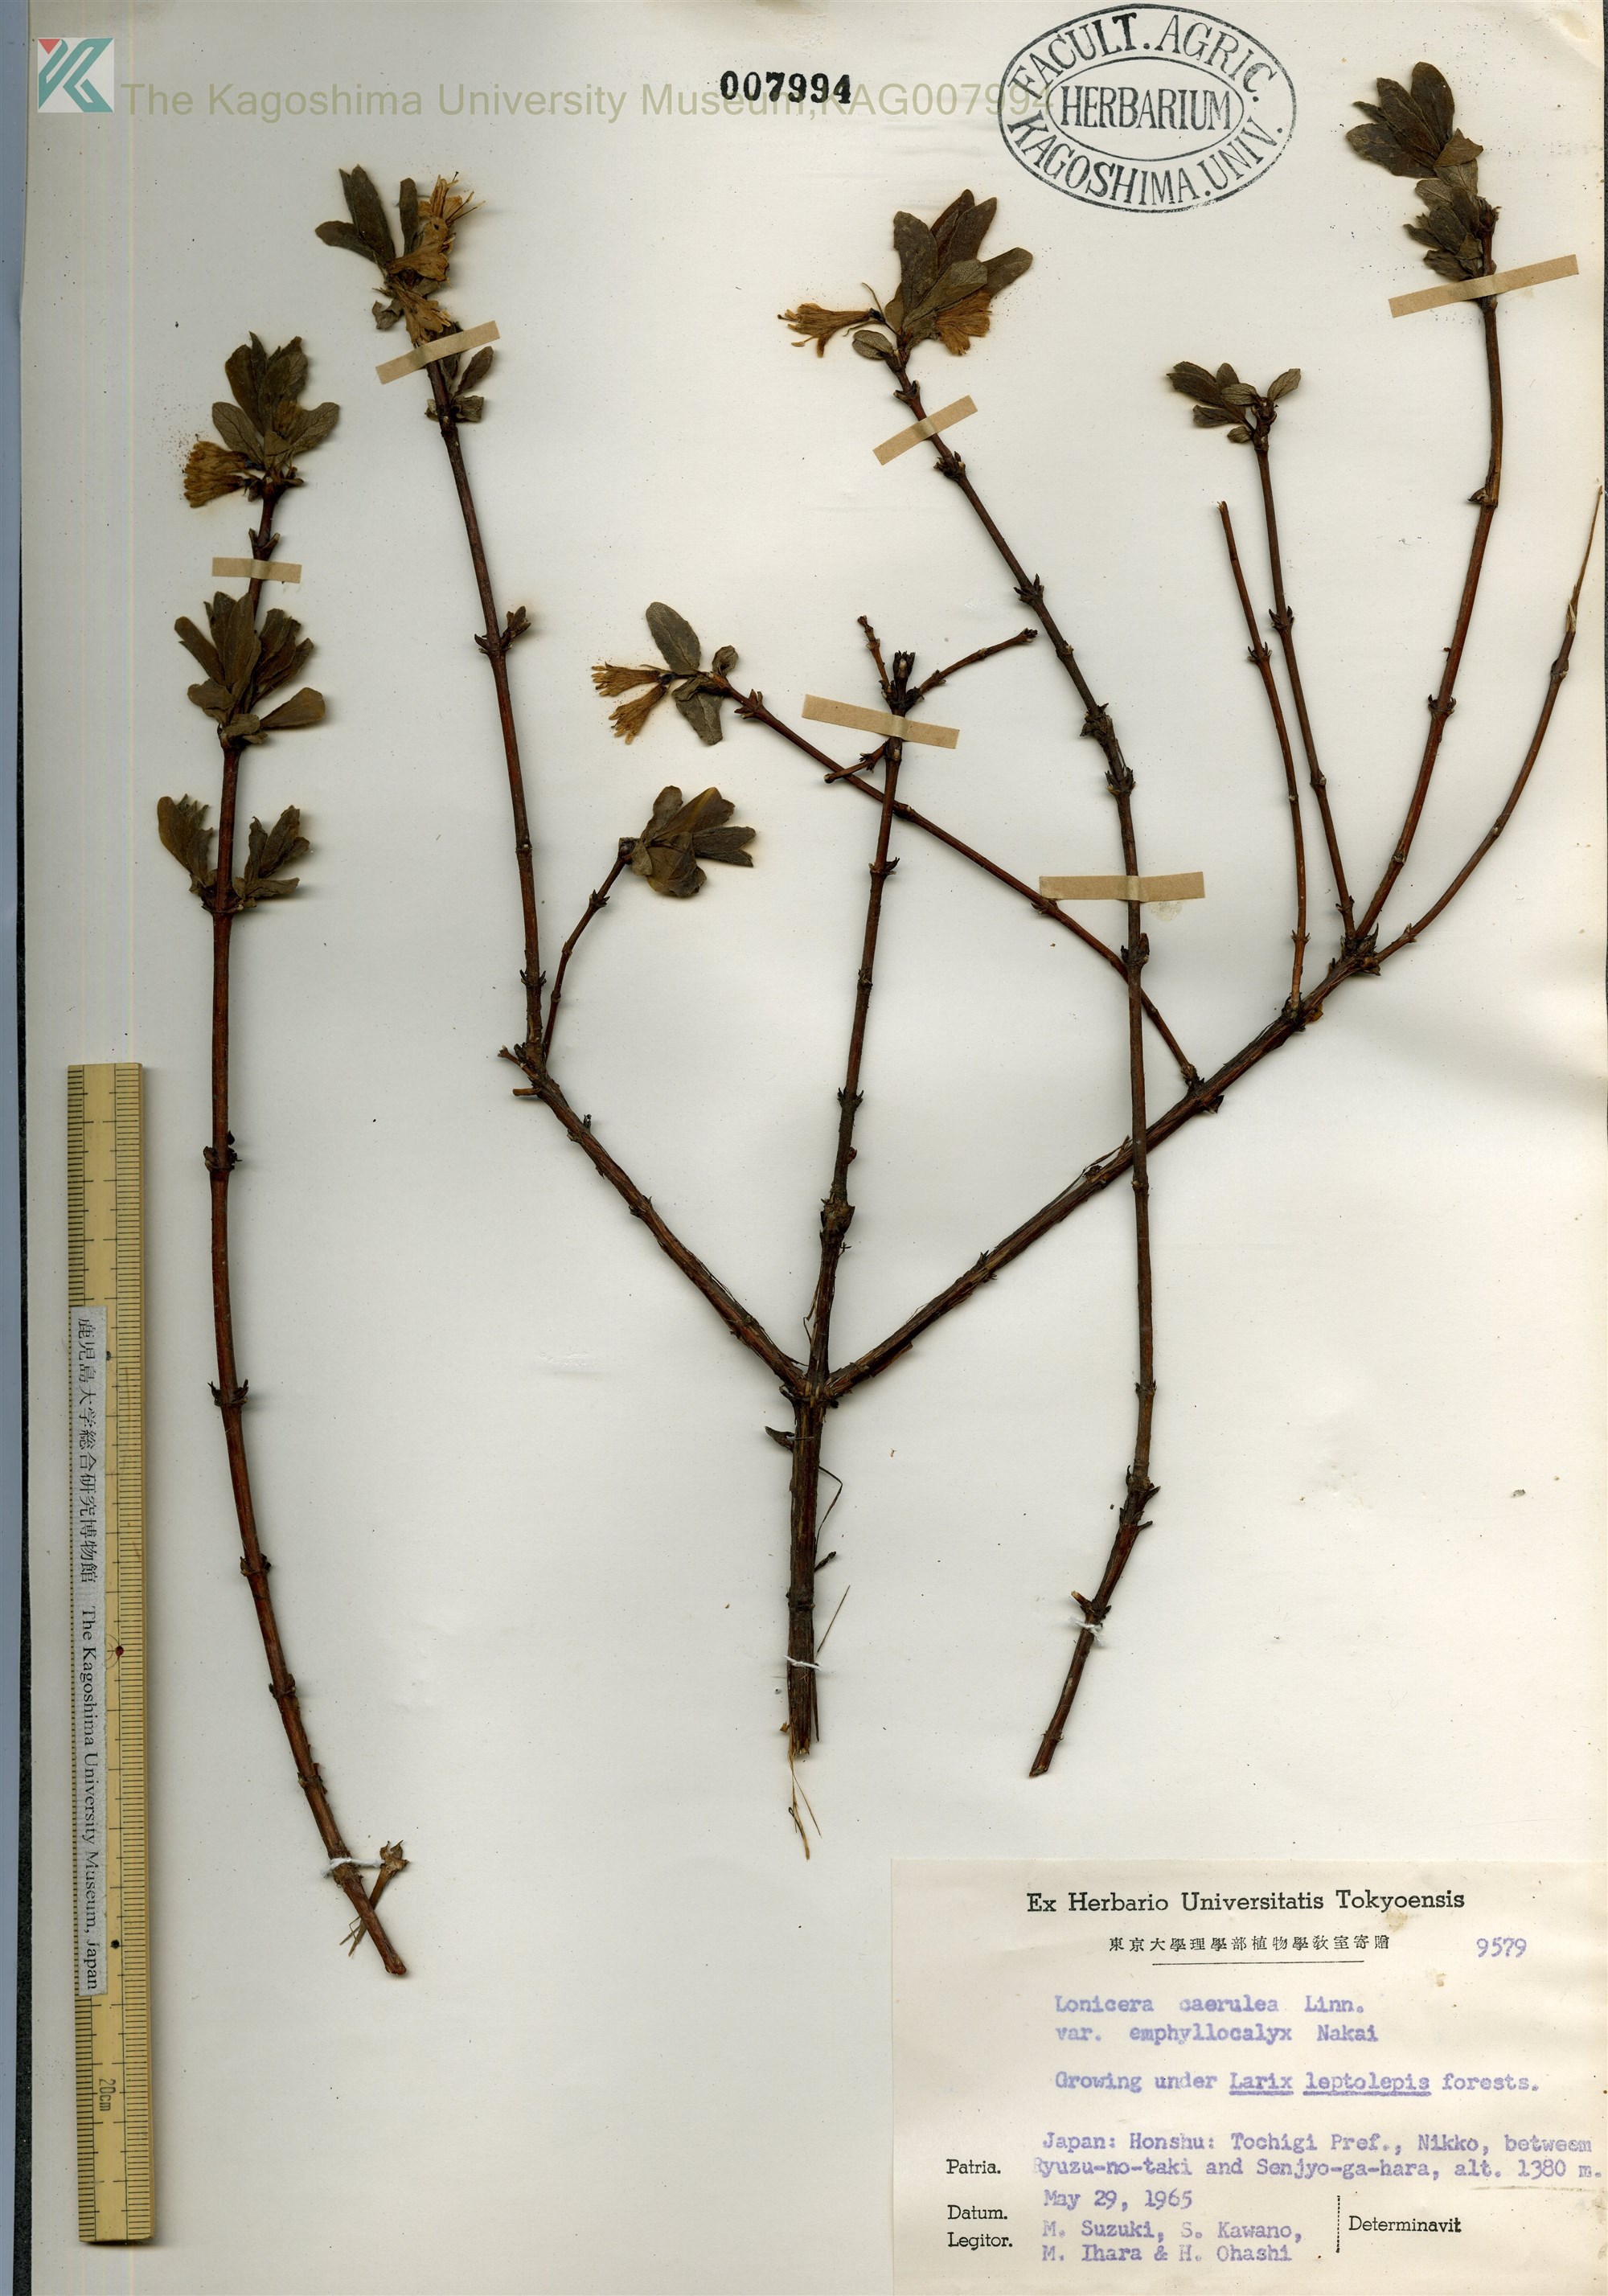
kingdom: Plantae
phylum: Tracheophyta
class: Magnoliopsida
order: Dipsacales
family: Caprifoliaceae
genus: Lonicera
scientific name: Lonicera caerulea
